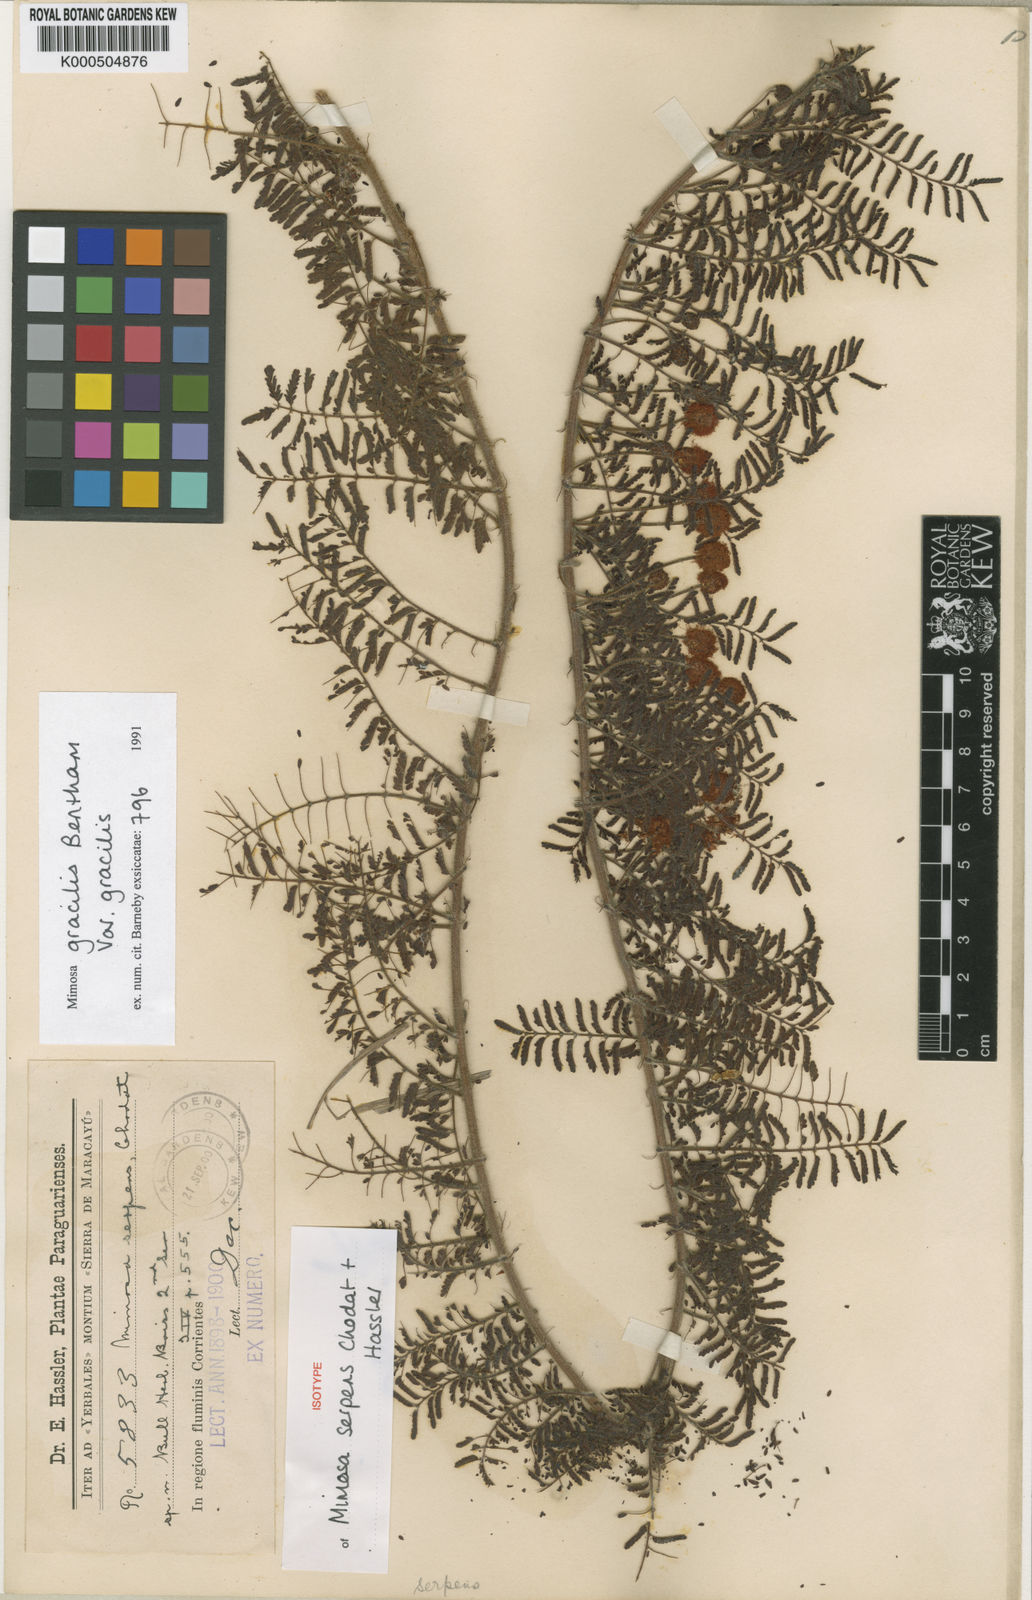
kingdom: Plantae
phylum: Tracheophyta
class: Magnoliopsida
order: Fabales
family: Fabaceae
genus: Mimosa
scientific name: Mimosa gracilis
